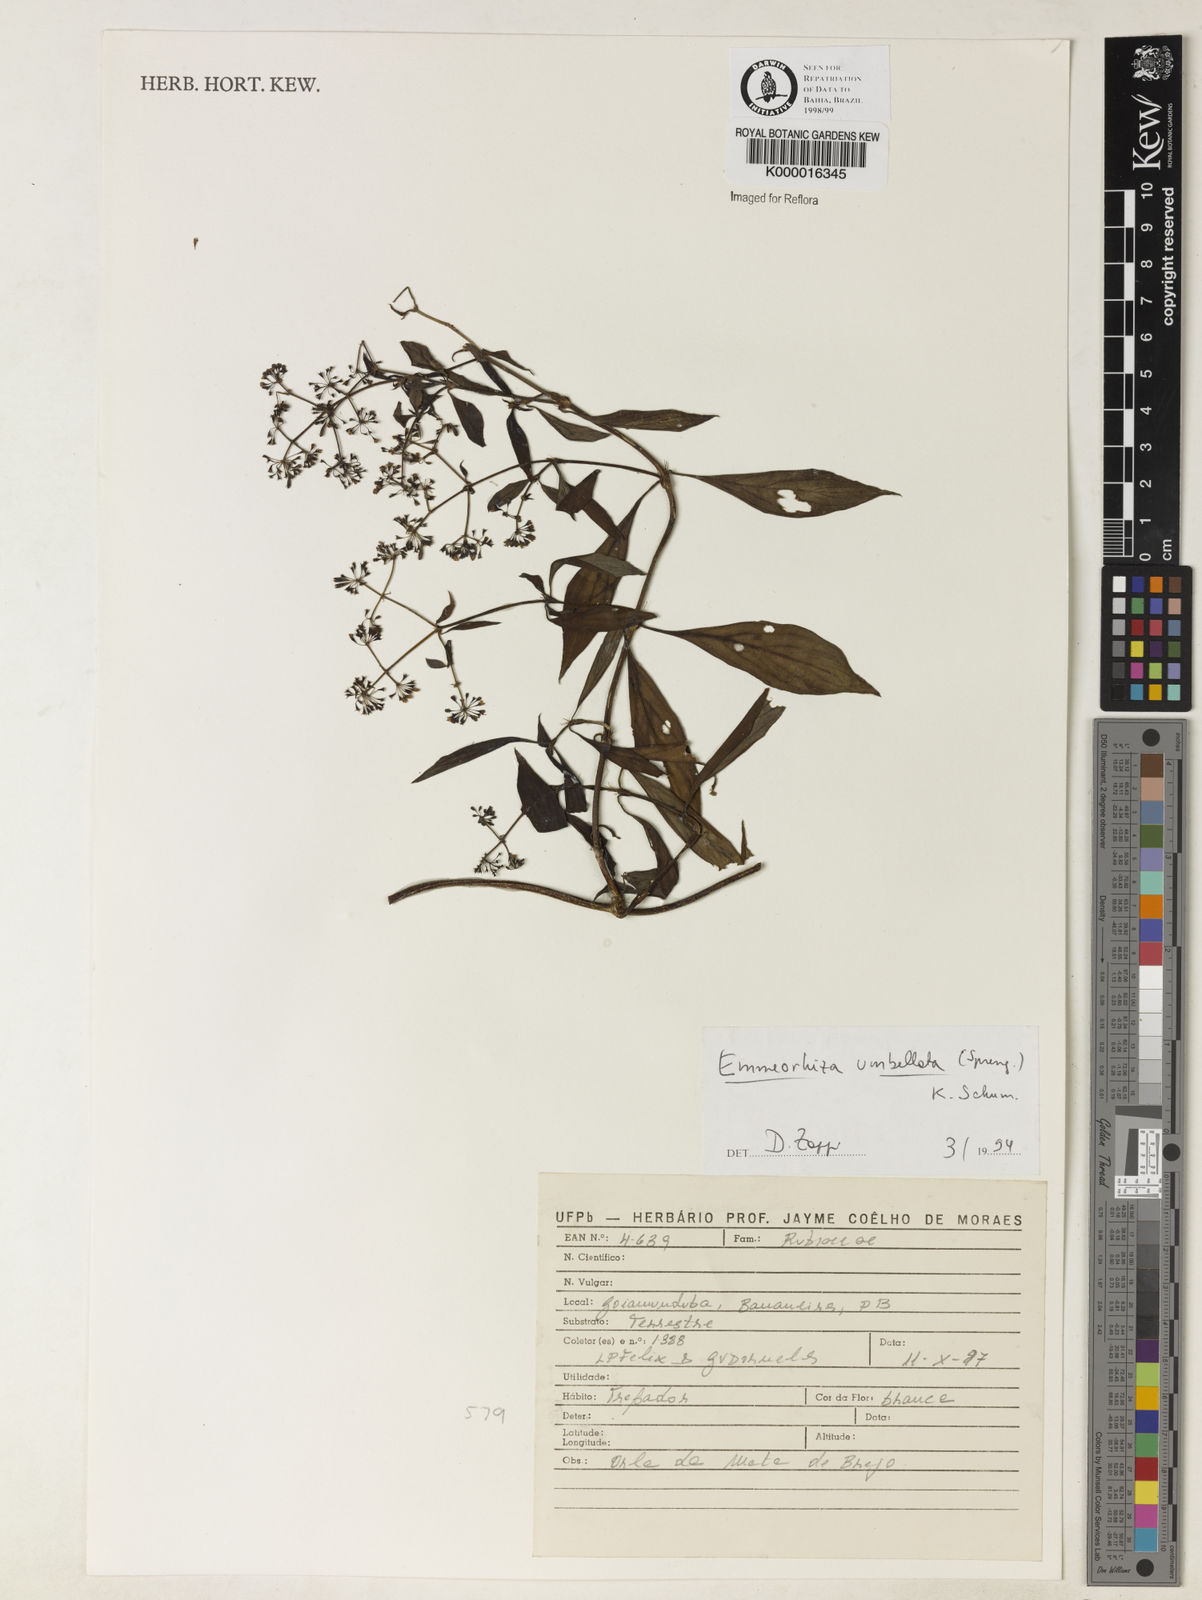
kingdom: Plantae
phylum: Tracheophyta
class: Magnoliopsida
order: Gentianales
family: Rubiaceae
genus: Emmeorhiza
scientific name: Emmeorhiza umbellata
